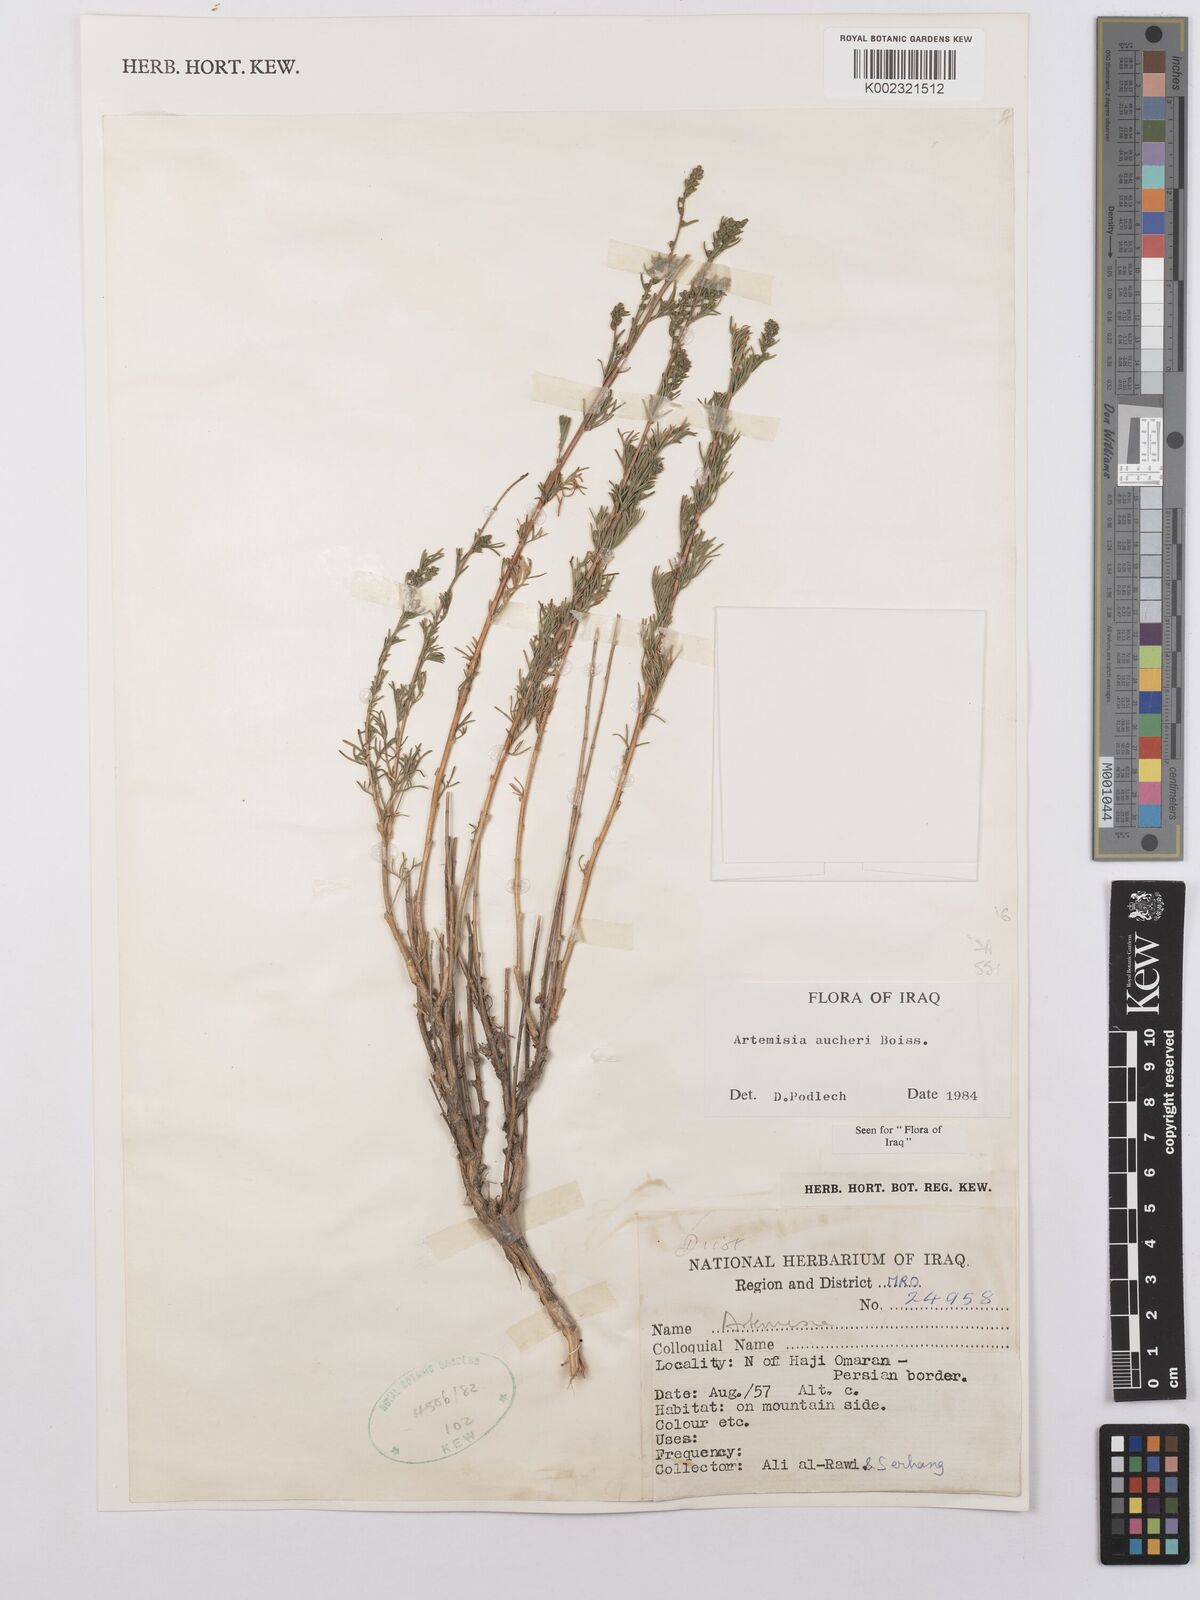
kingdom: Plantae
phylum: Tracheophyta
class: Magnoliopsida
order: Asterales
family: Asteraceae
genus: Artemisia
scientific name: Artemisia aucheri
